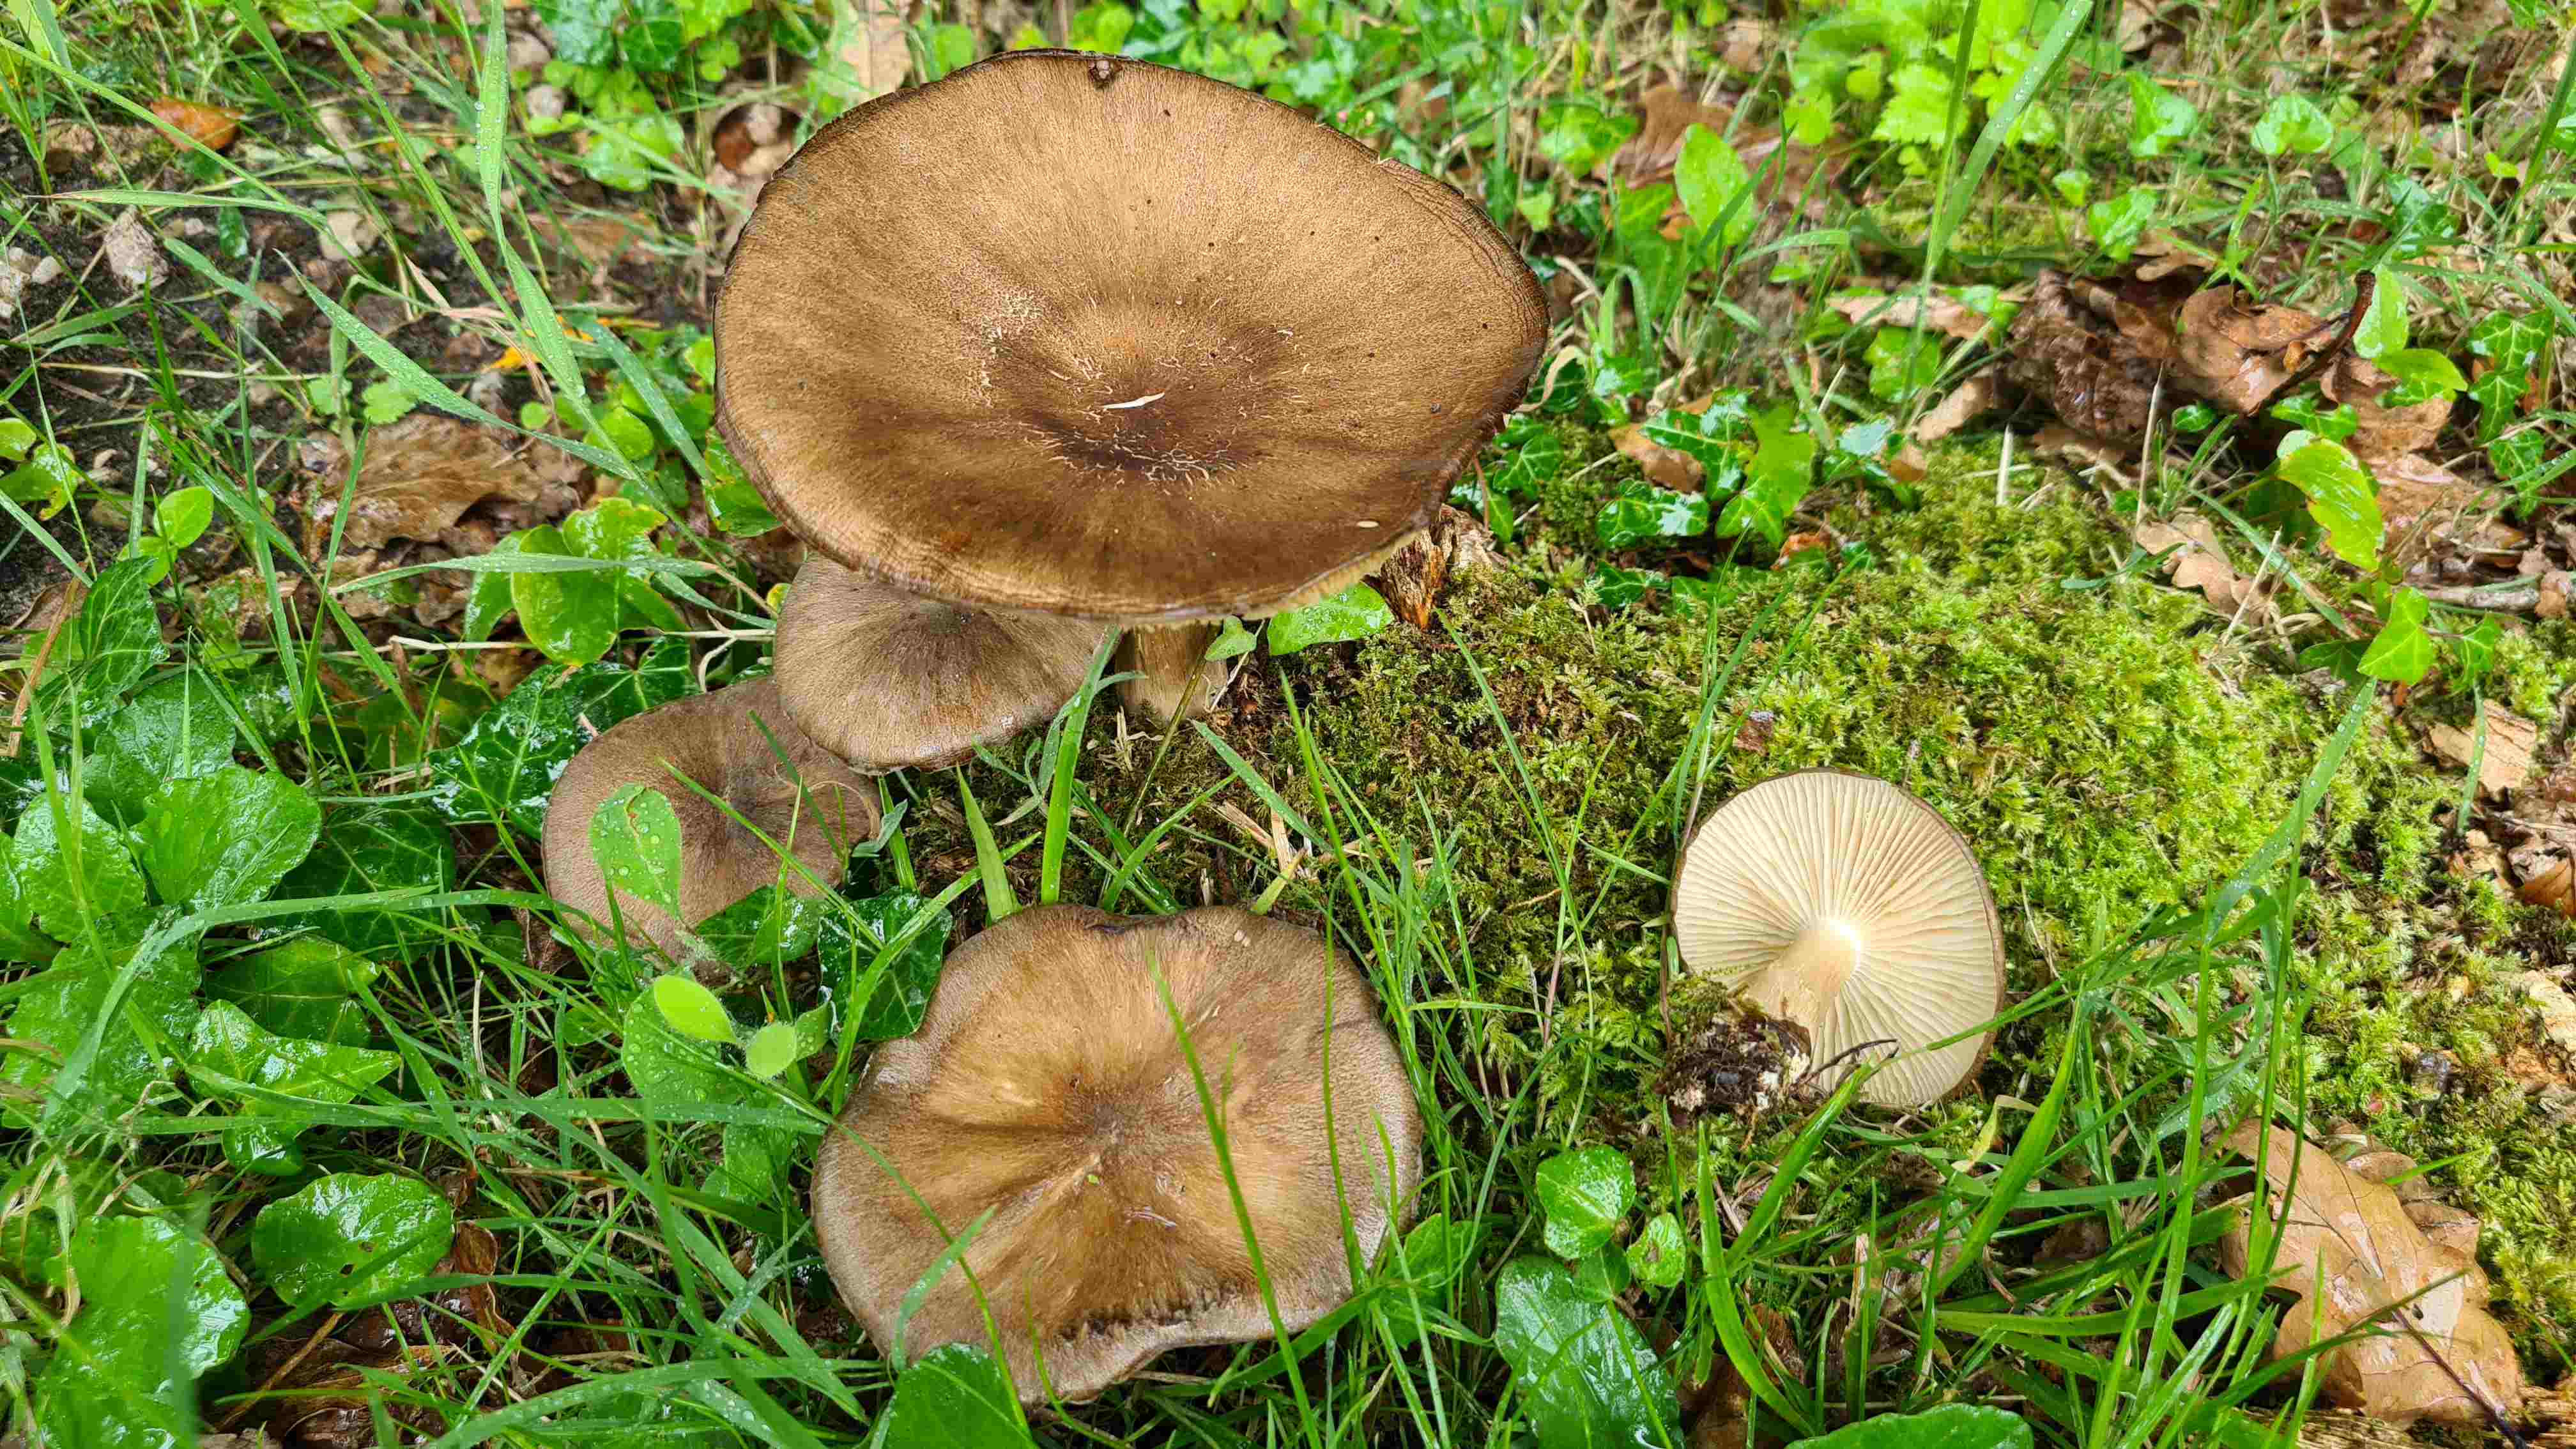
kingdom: Fungi
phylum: Basidiomycota
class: Agaricomycetes
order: Agaricales
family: Tricholomataceae
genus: Megacollybia
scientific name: Megacollybia platyphylla
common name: bredbladet væbnerhat
